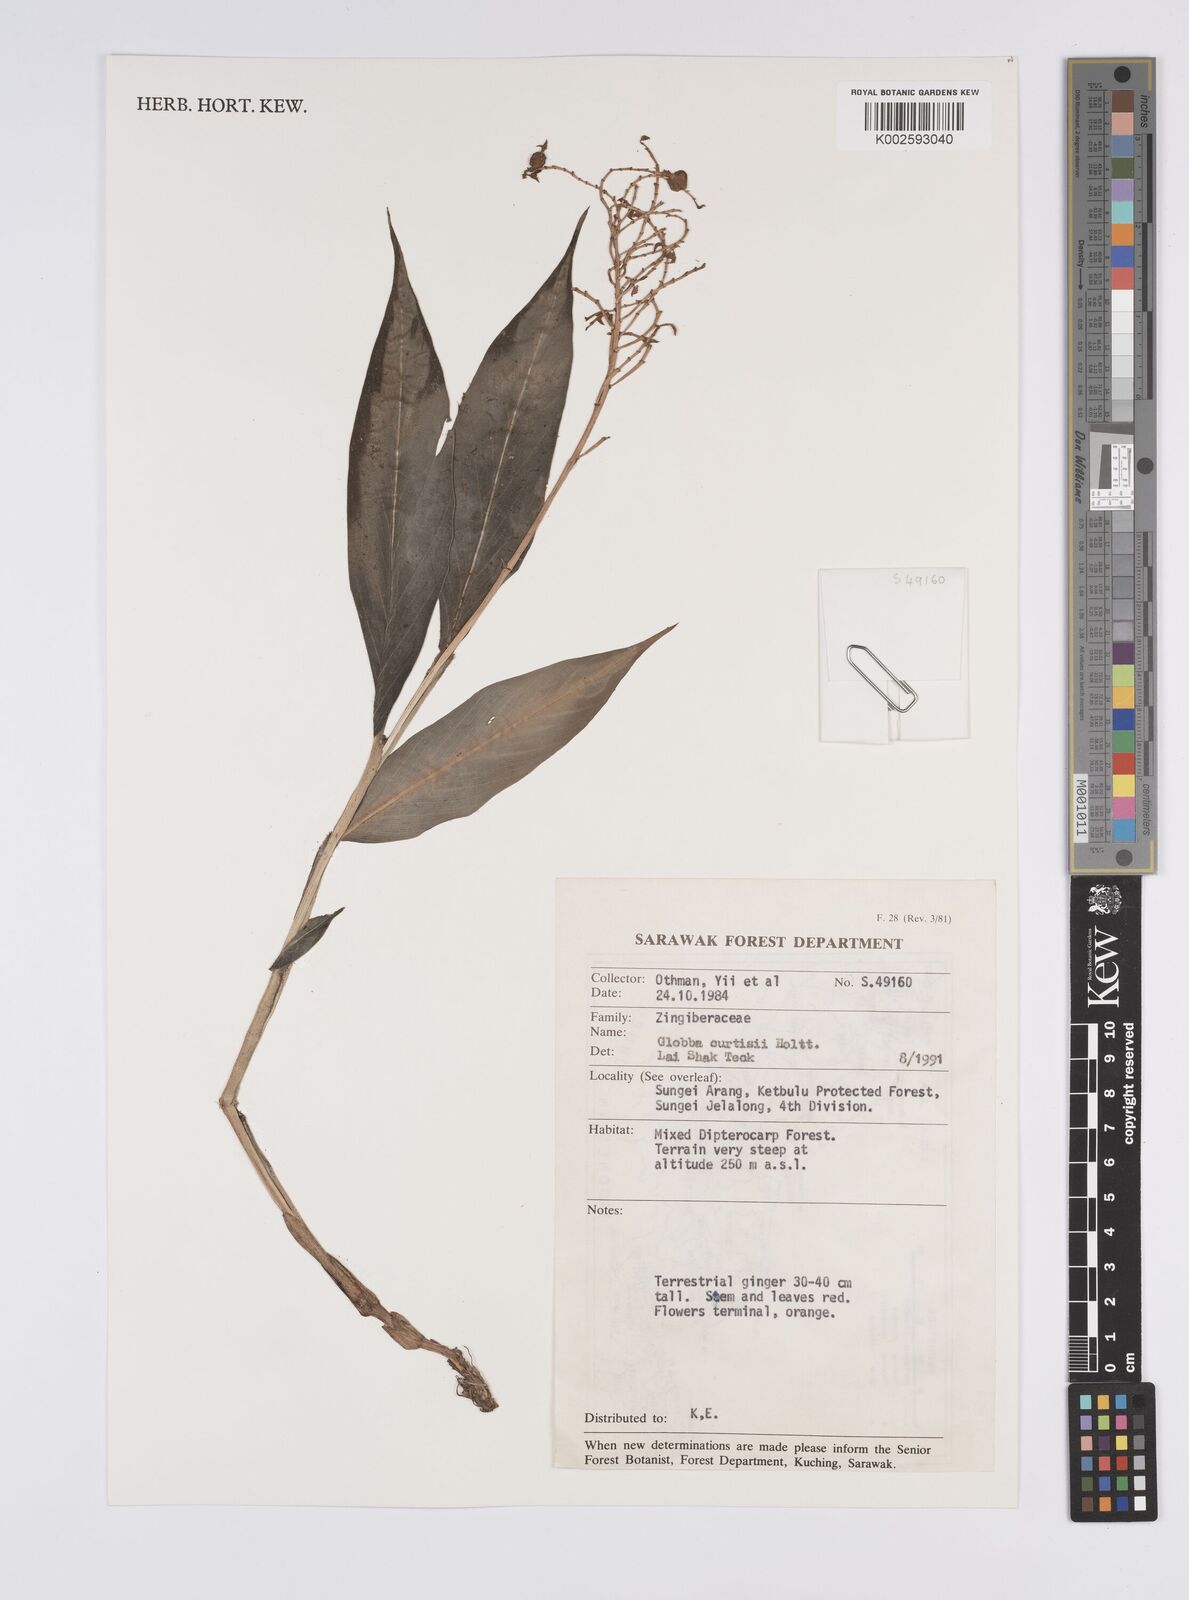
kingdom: Plantae
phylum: Tracheophyta
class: Liliopsida
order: Zingiberales
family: Zingiberaceae
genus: Globba
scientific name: Globba brachyanthera
